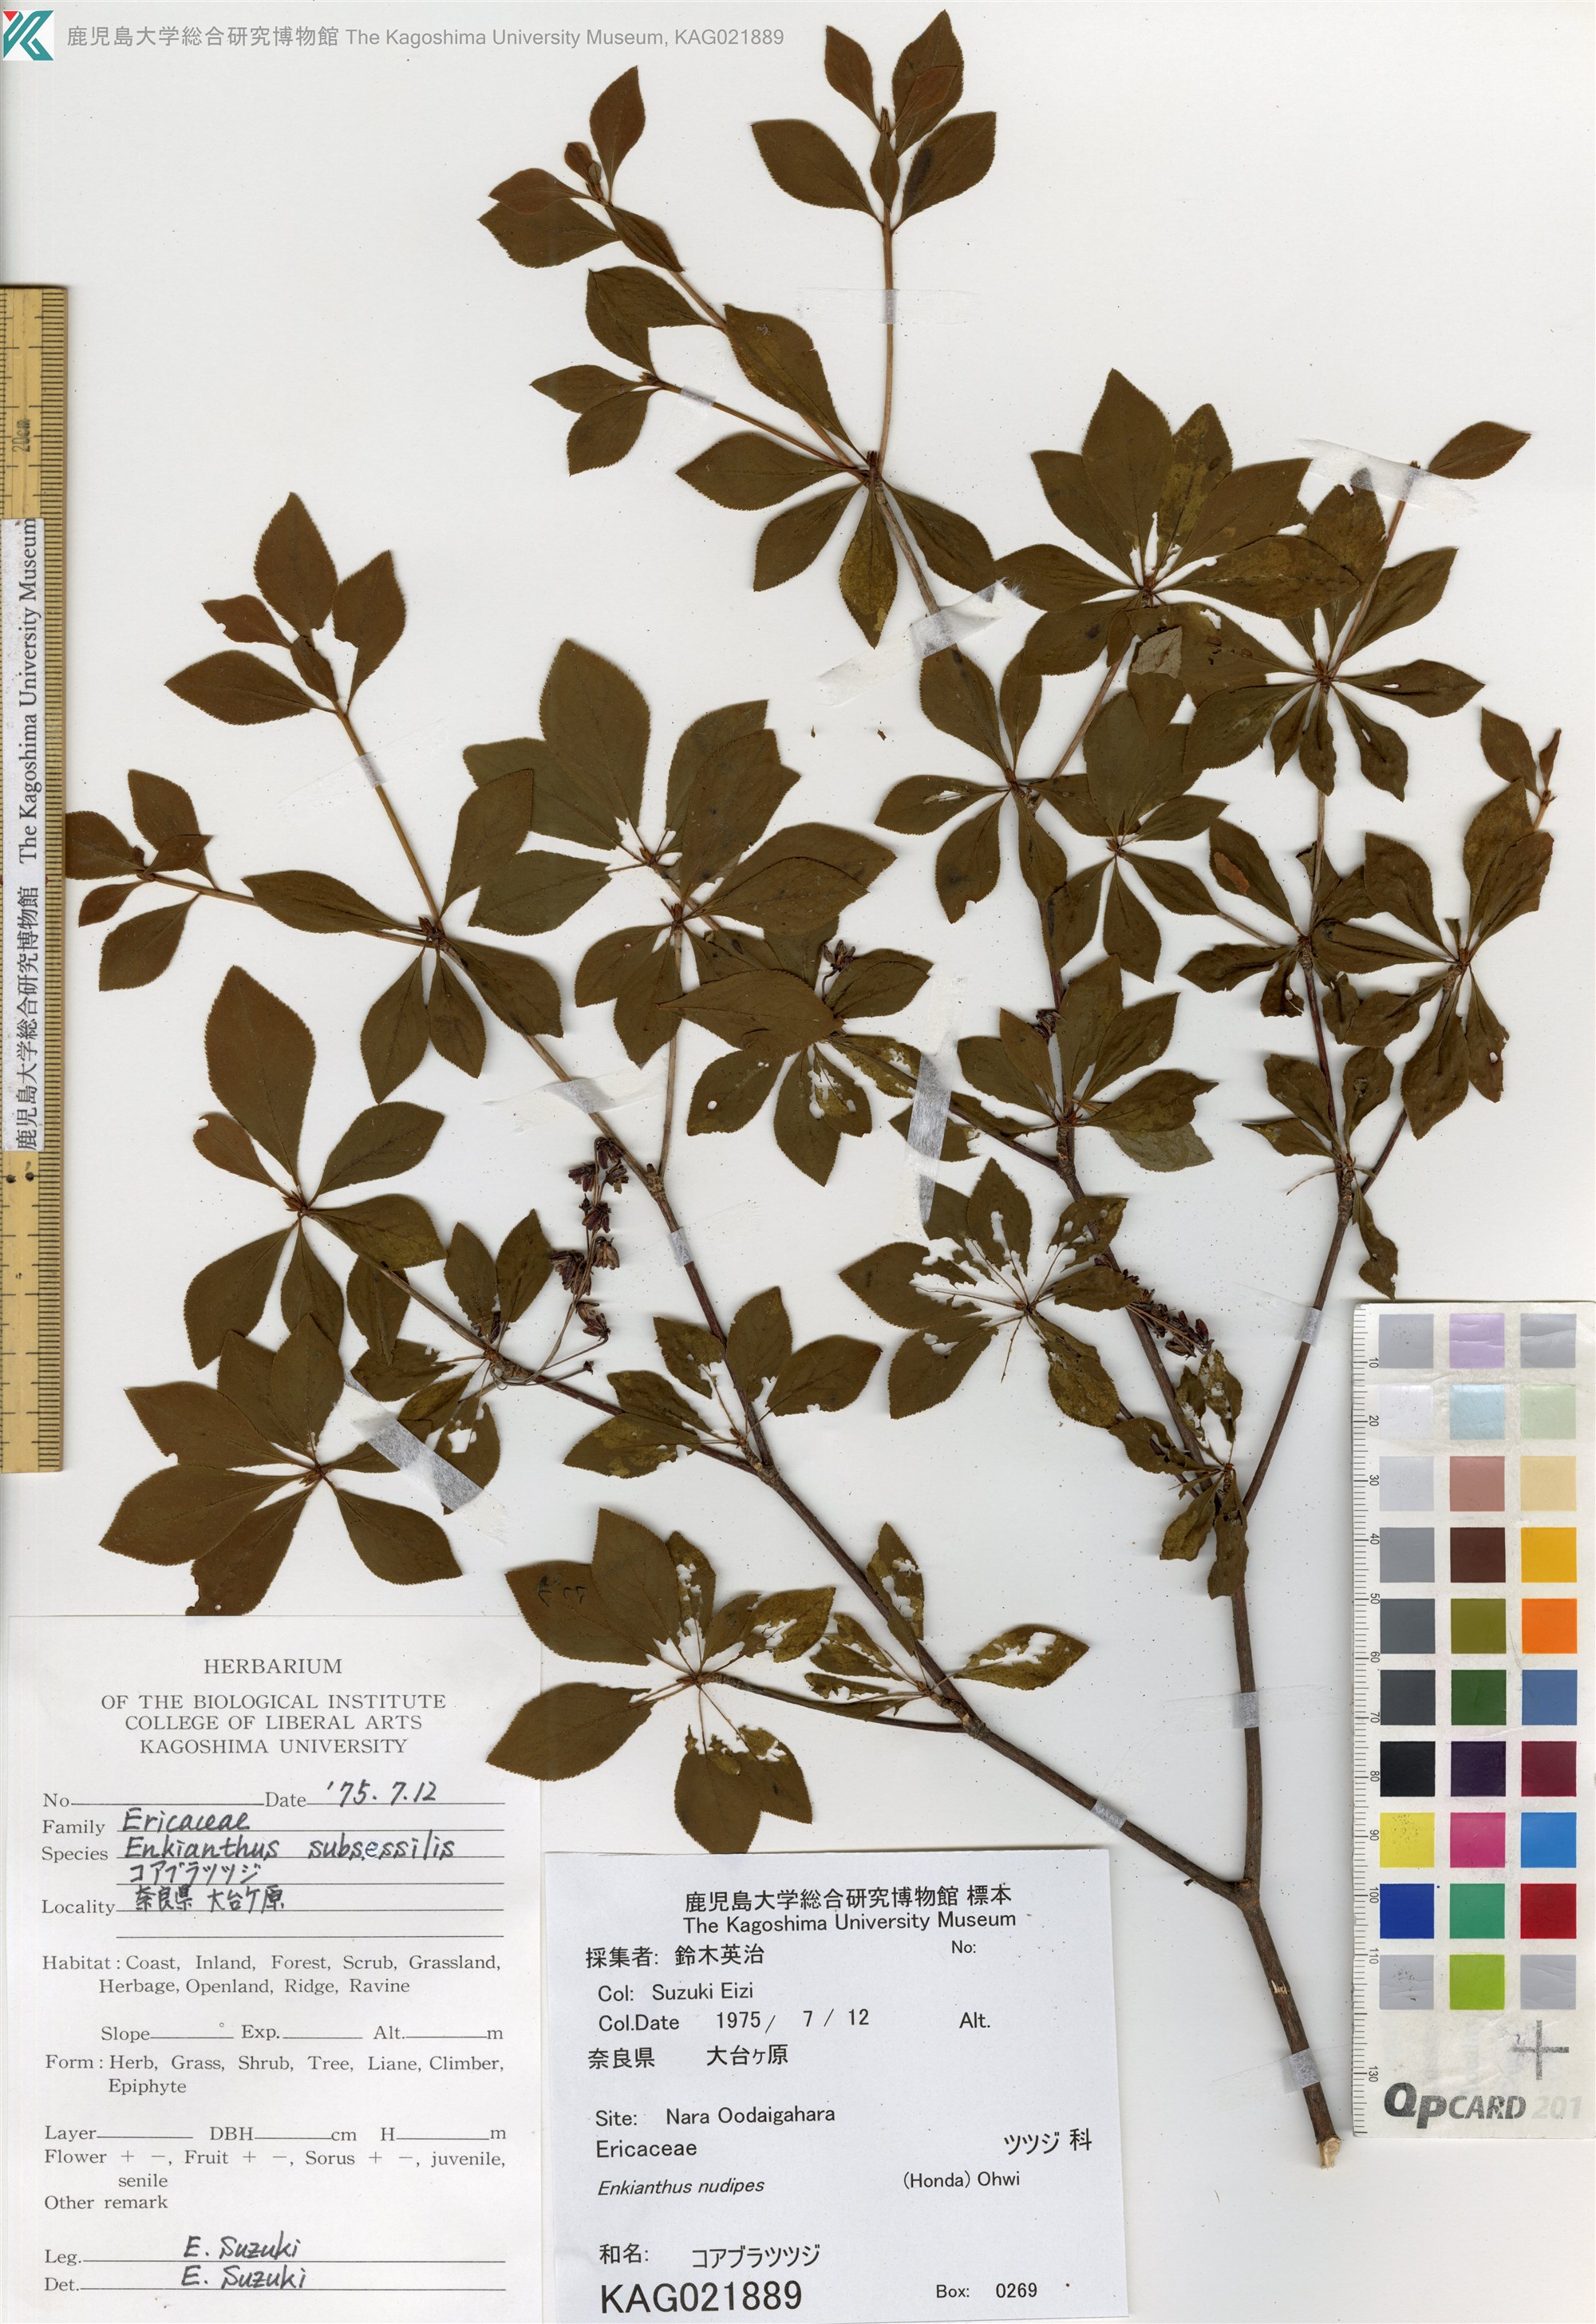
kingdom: Plantae
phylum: Tracheophyta
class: Magnoliopsida
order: Ericales
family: Ericaceae
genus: Enkianthus
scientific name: Enkianthus nudipes
